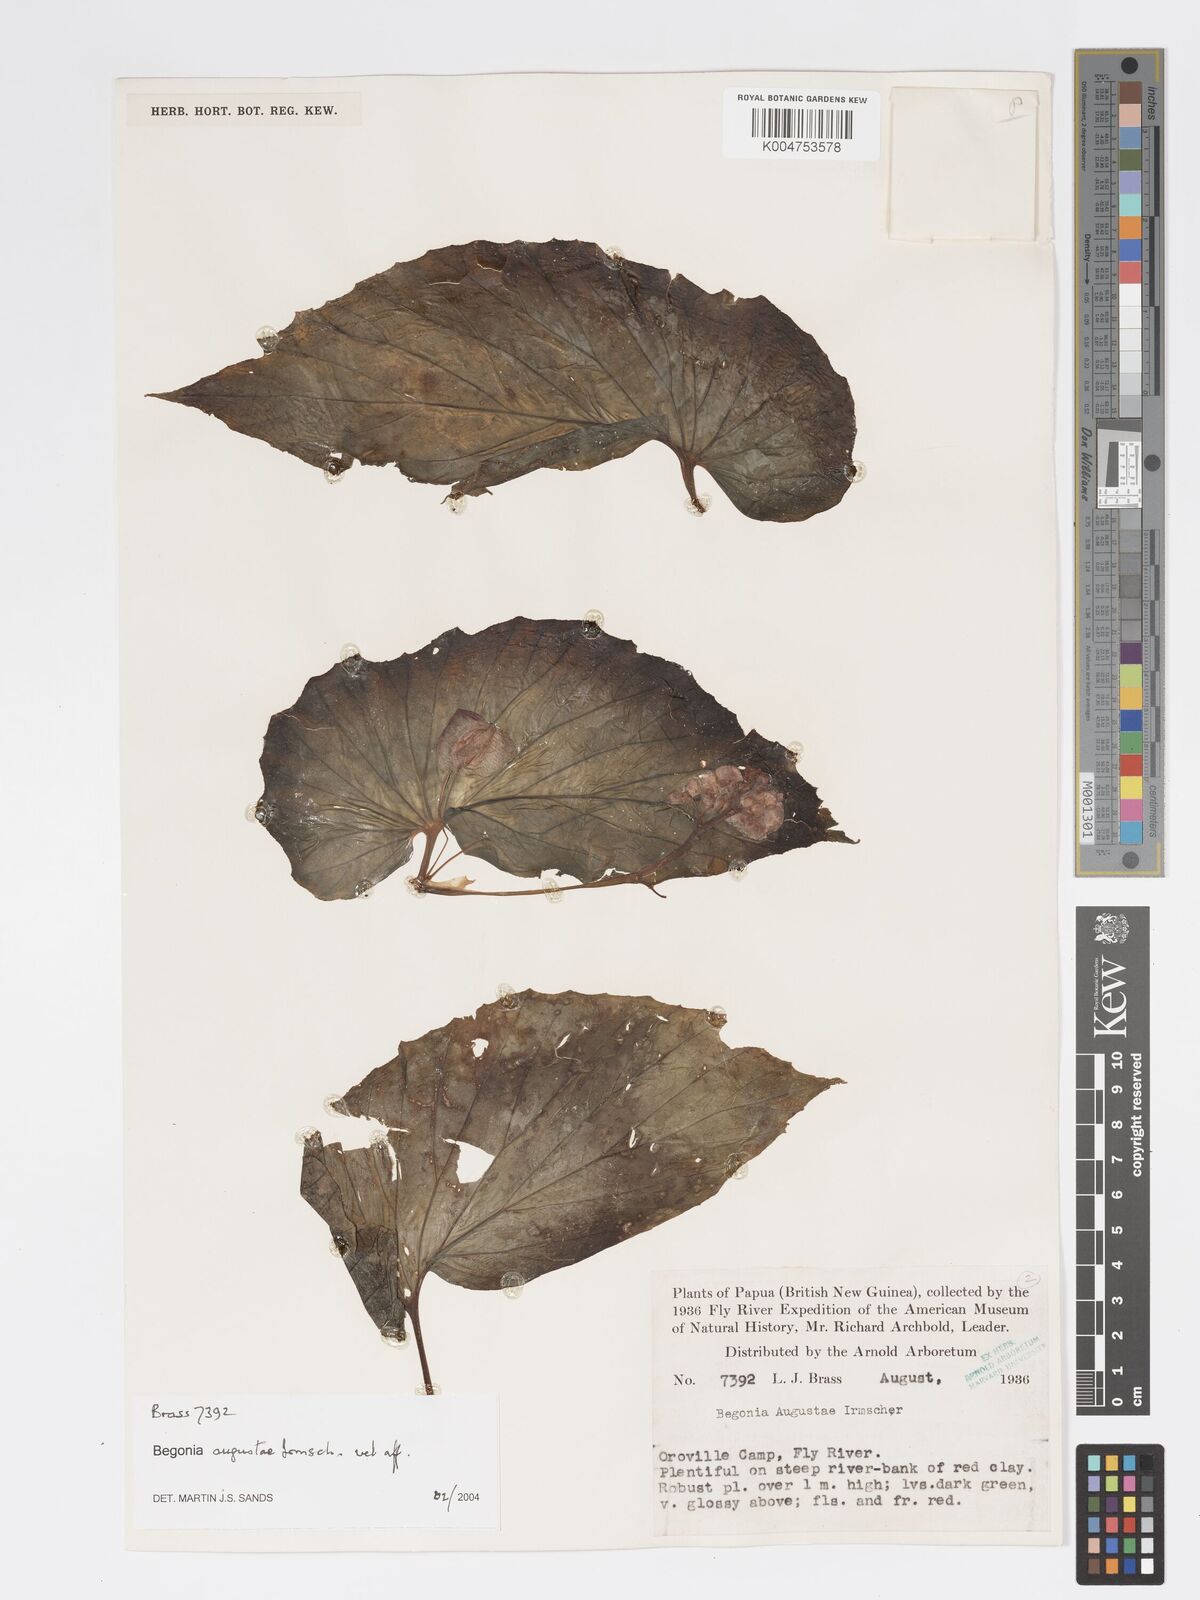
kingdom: Plantae
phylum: Tracheophyta
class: Magnoliopsida
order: Cucurbitales
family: Begoniaceae
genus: Begonia
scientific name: Begonia augustae
